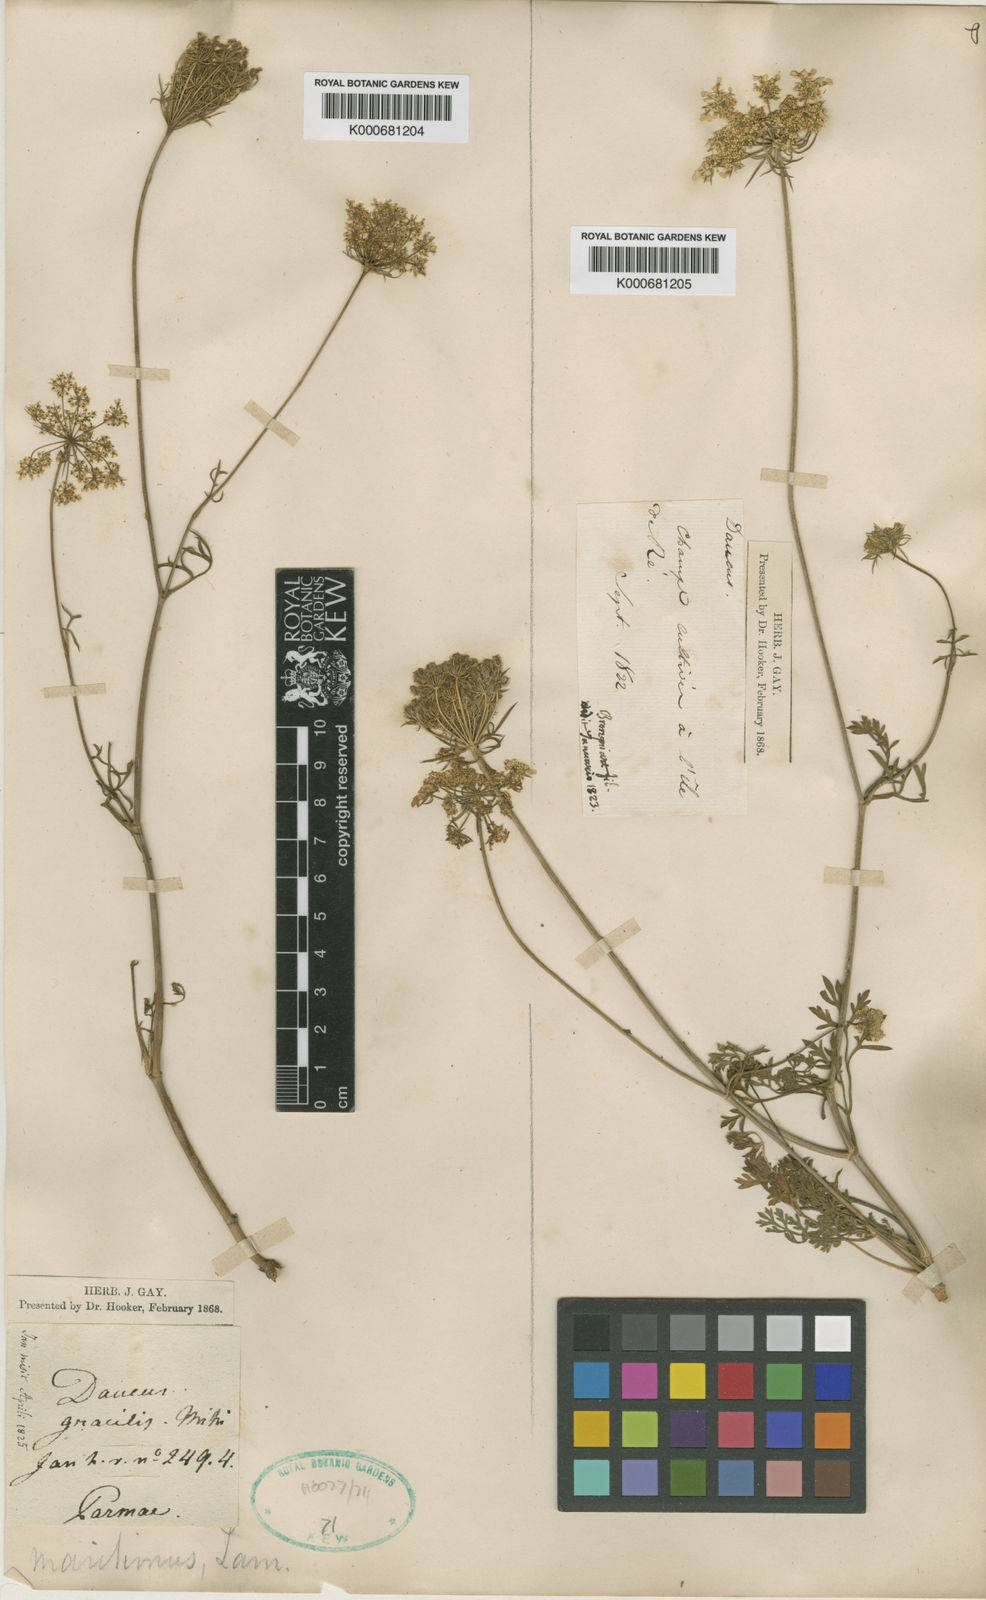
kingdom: Plantae
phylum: Tracheophyta
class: Magnoliopsida
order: Apiales
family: Apiaceae
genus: Daucus
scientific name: Daucus carota
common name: Wild carrot
